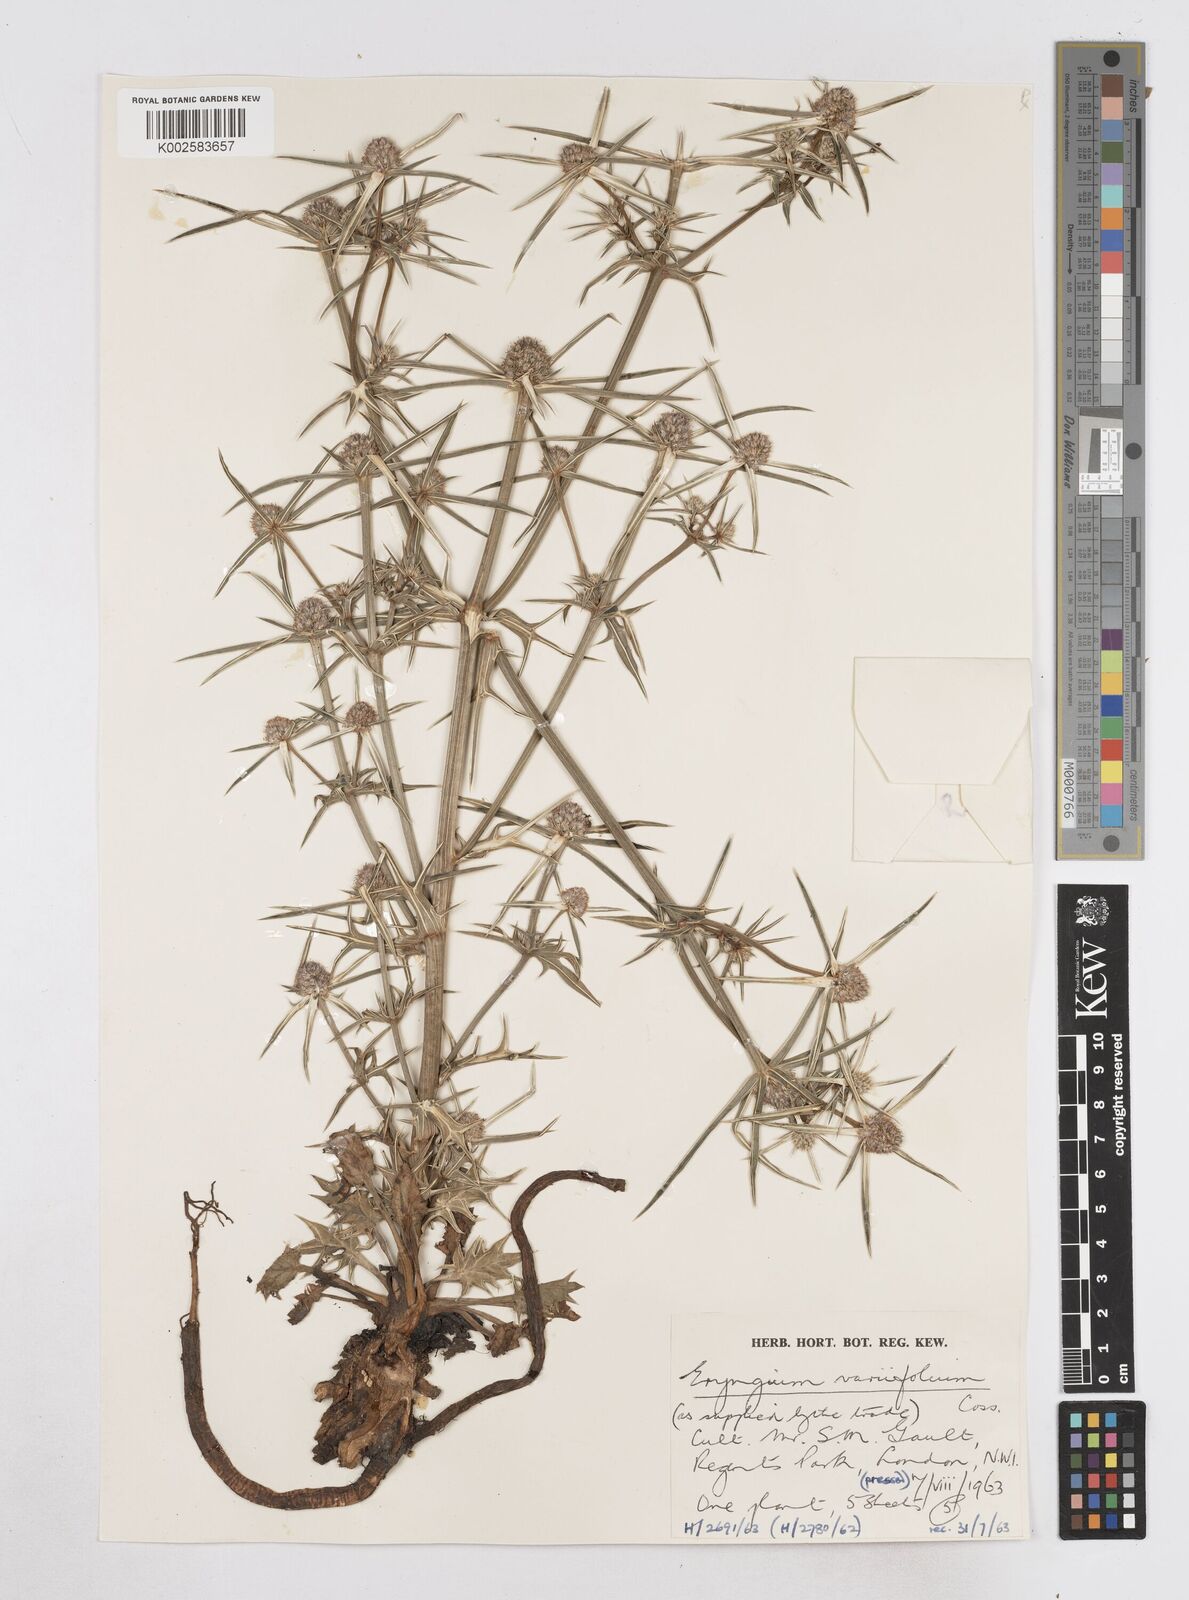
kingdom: Plantae
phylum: Tracheophyta
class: Magnoliopsida
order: Apiales
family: Apiaceae
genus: Eryngium
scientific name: Eryngium variifolium
